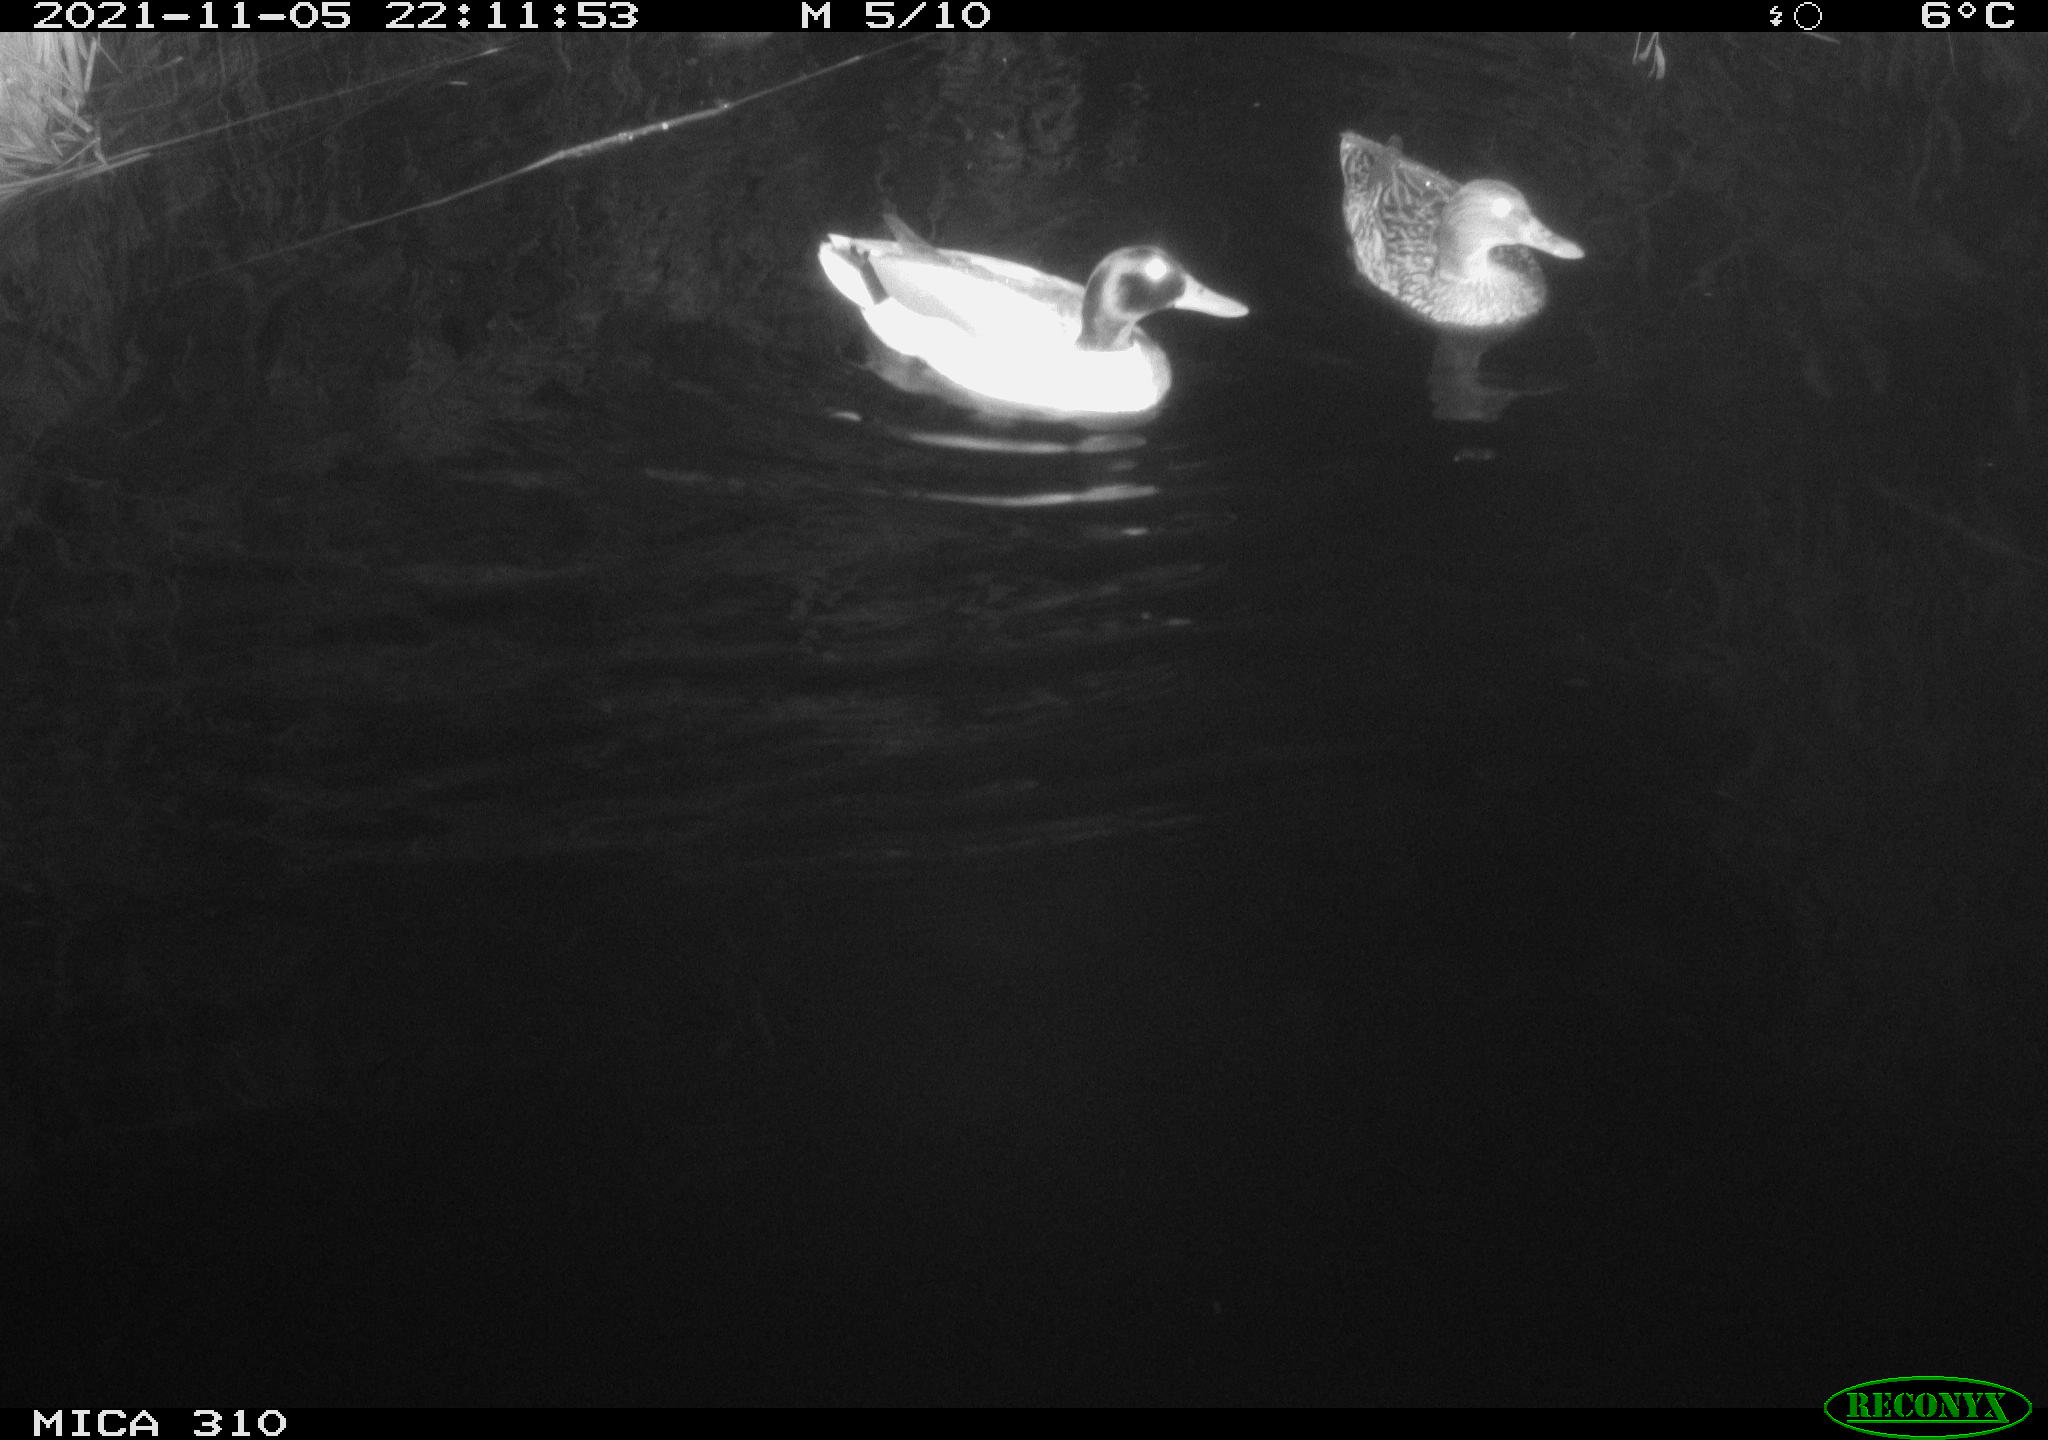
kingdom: Animalia
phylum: Chordata
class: Aves
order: Anseriformes
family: Anatidae
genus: Mareca
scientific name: Mareca strepera
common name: Gadwall
